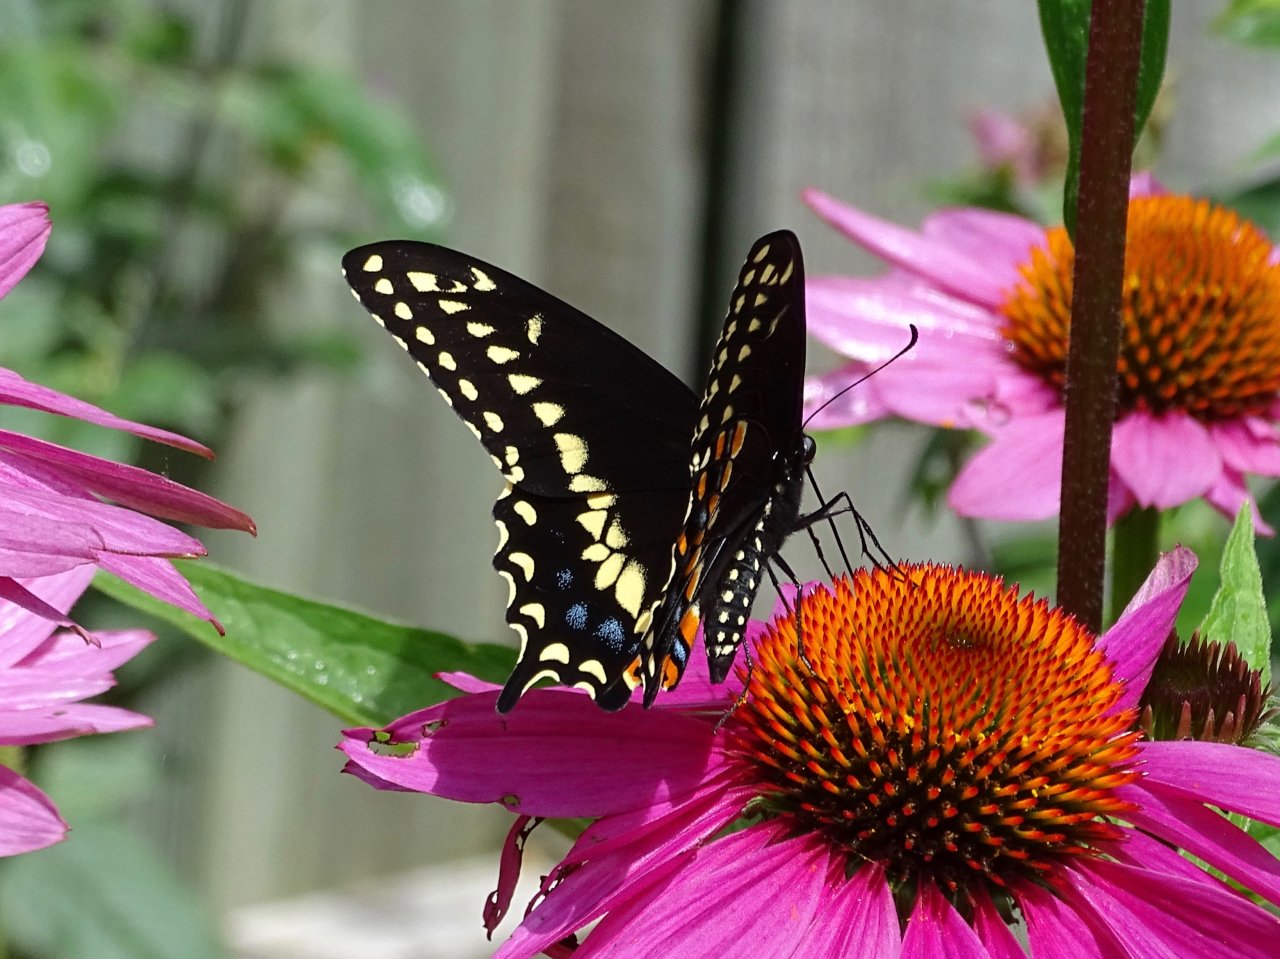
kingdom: Animalia
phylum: Arthropoda
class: Insecta
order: Lepidoptera
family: Papilionidae
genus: Papilio
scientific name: Papilio polyxenes
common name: Black Swallowtail
